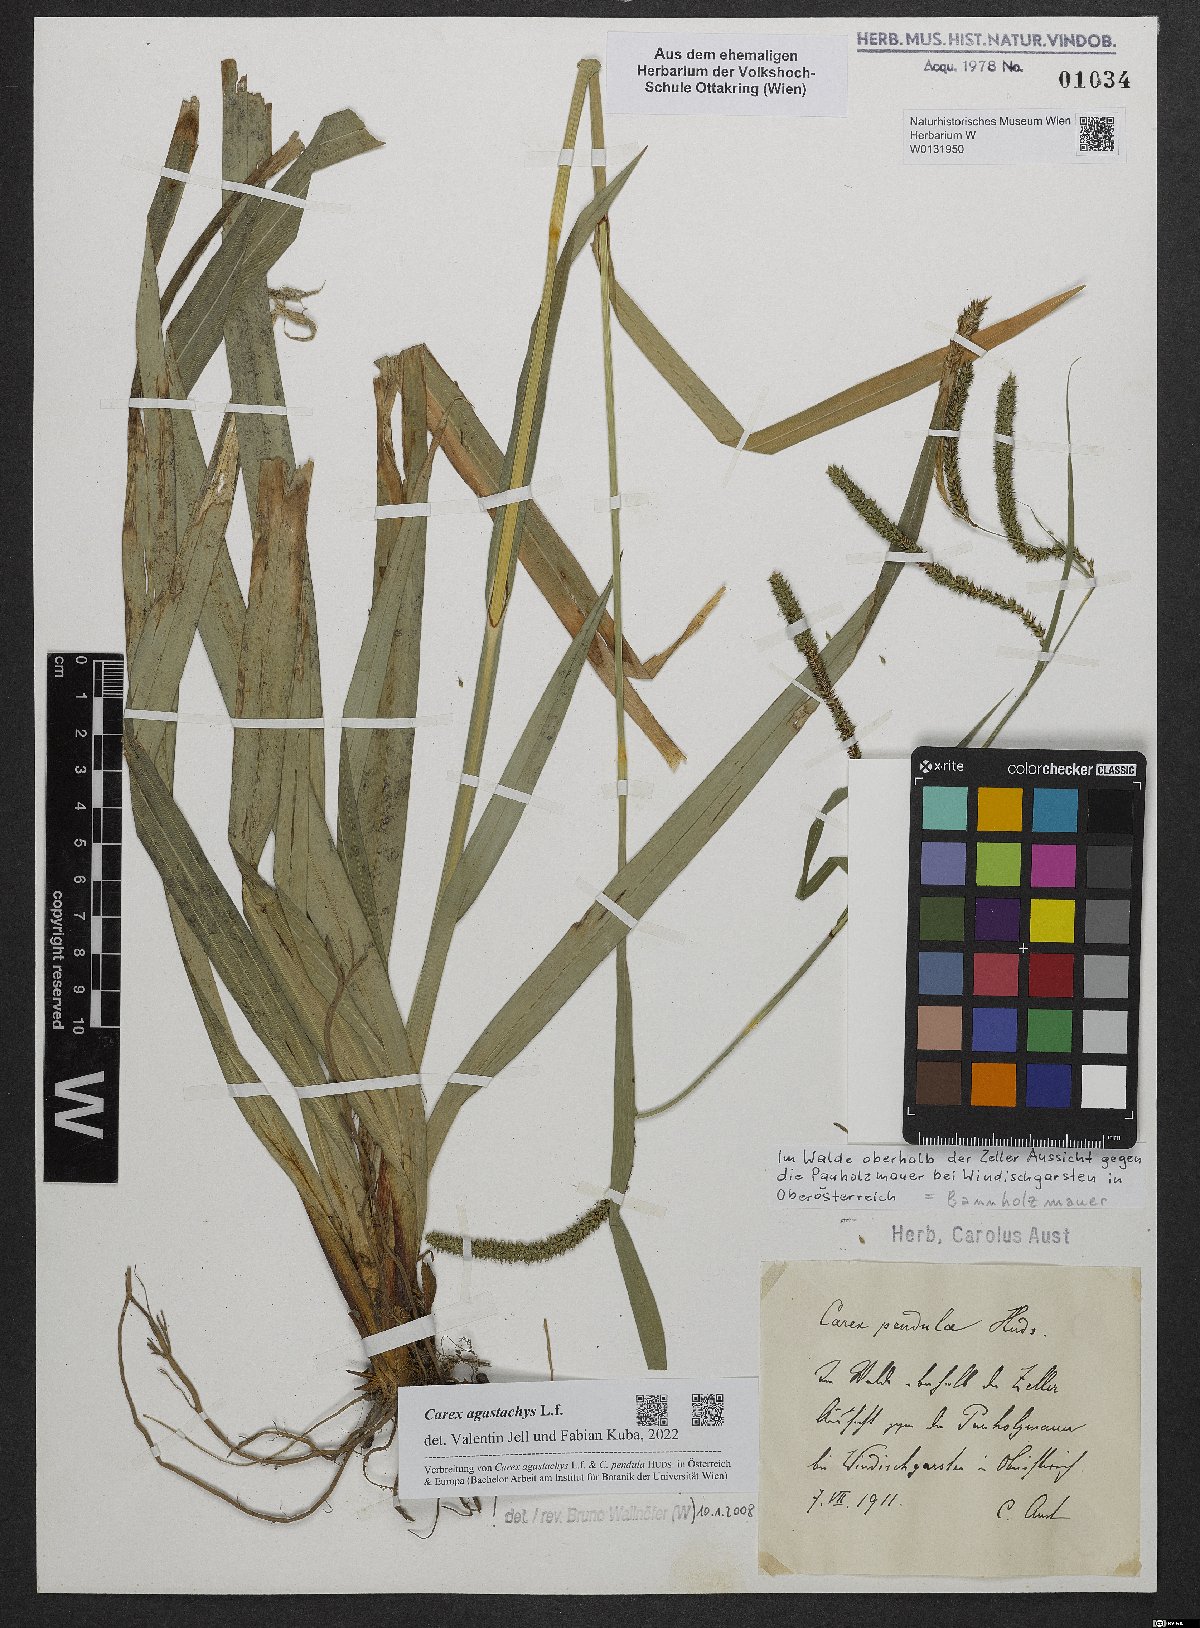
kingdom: Plantae
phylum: Tracheophyta
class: Liliopsida
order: Poales
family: Cyperaceae
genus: Carex
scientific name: Carex agastachys
